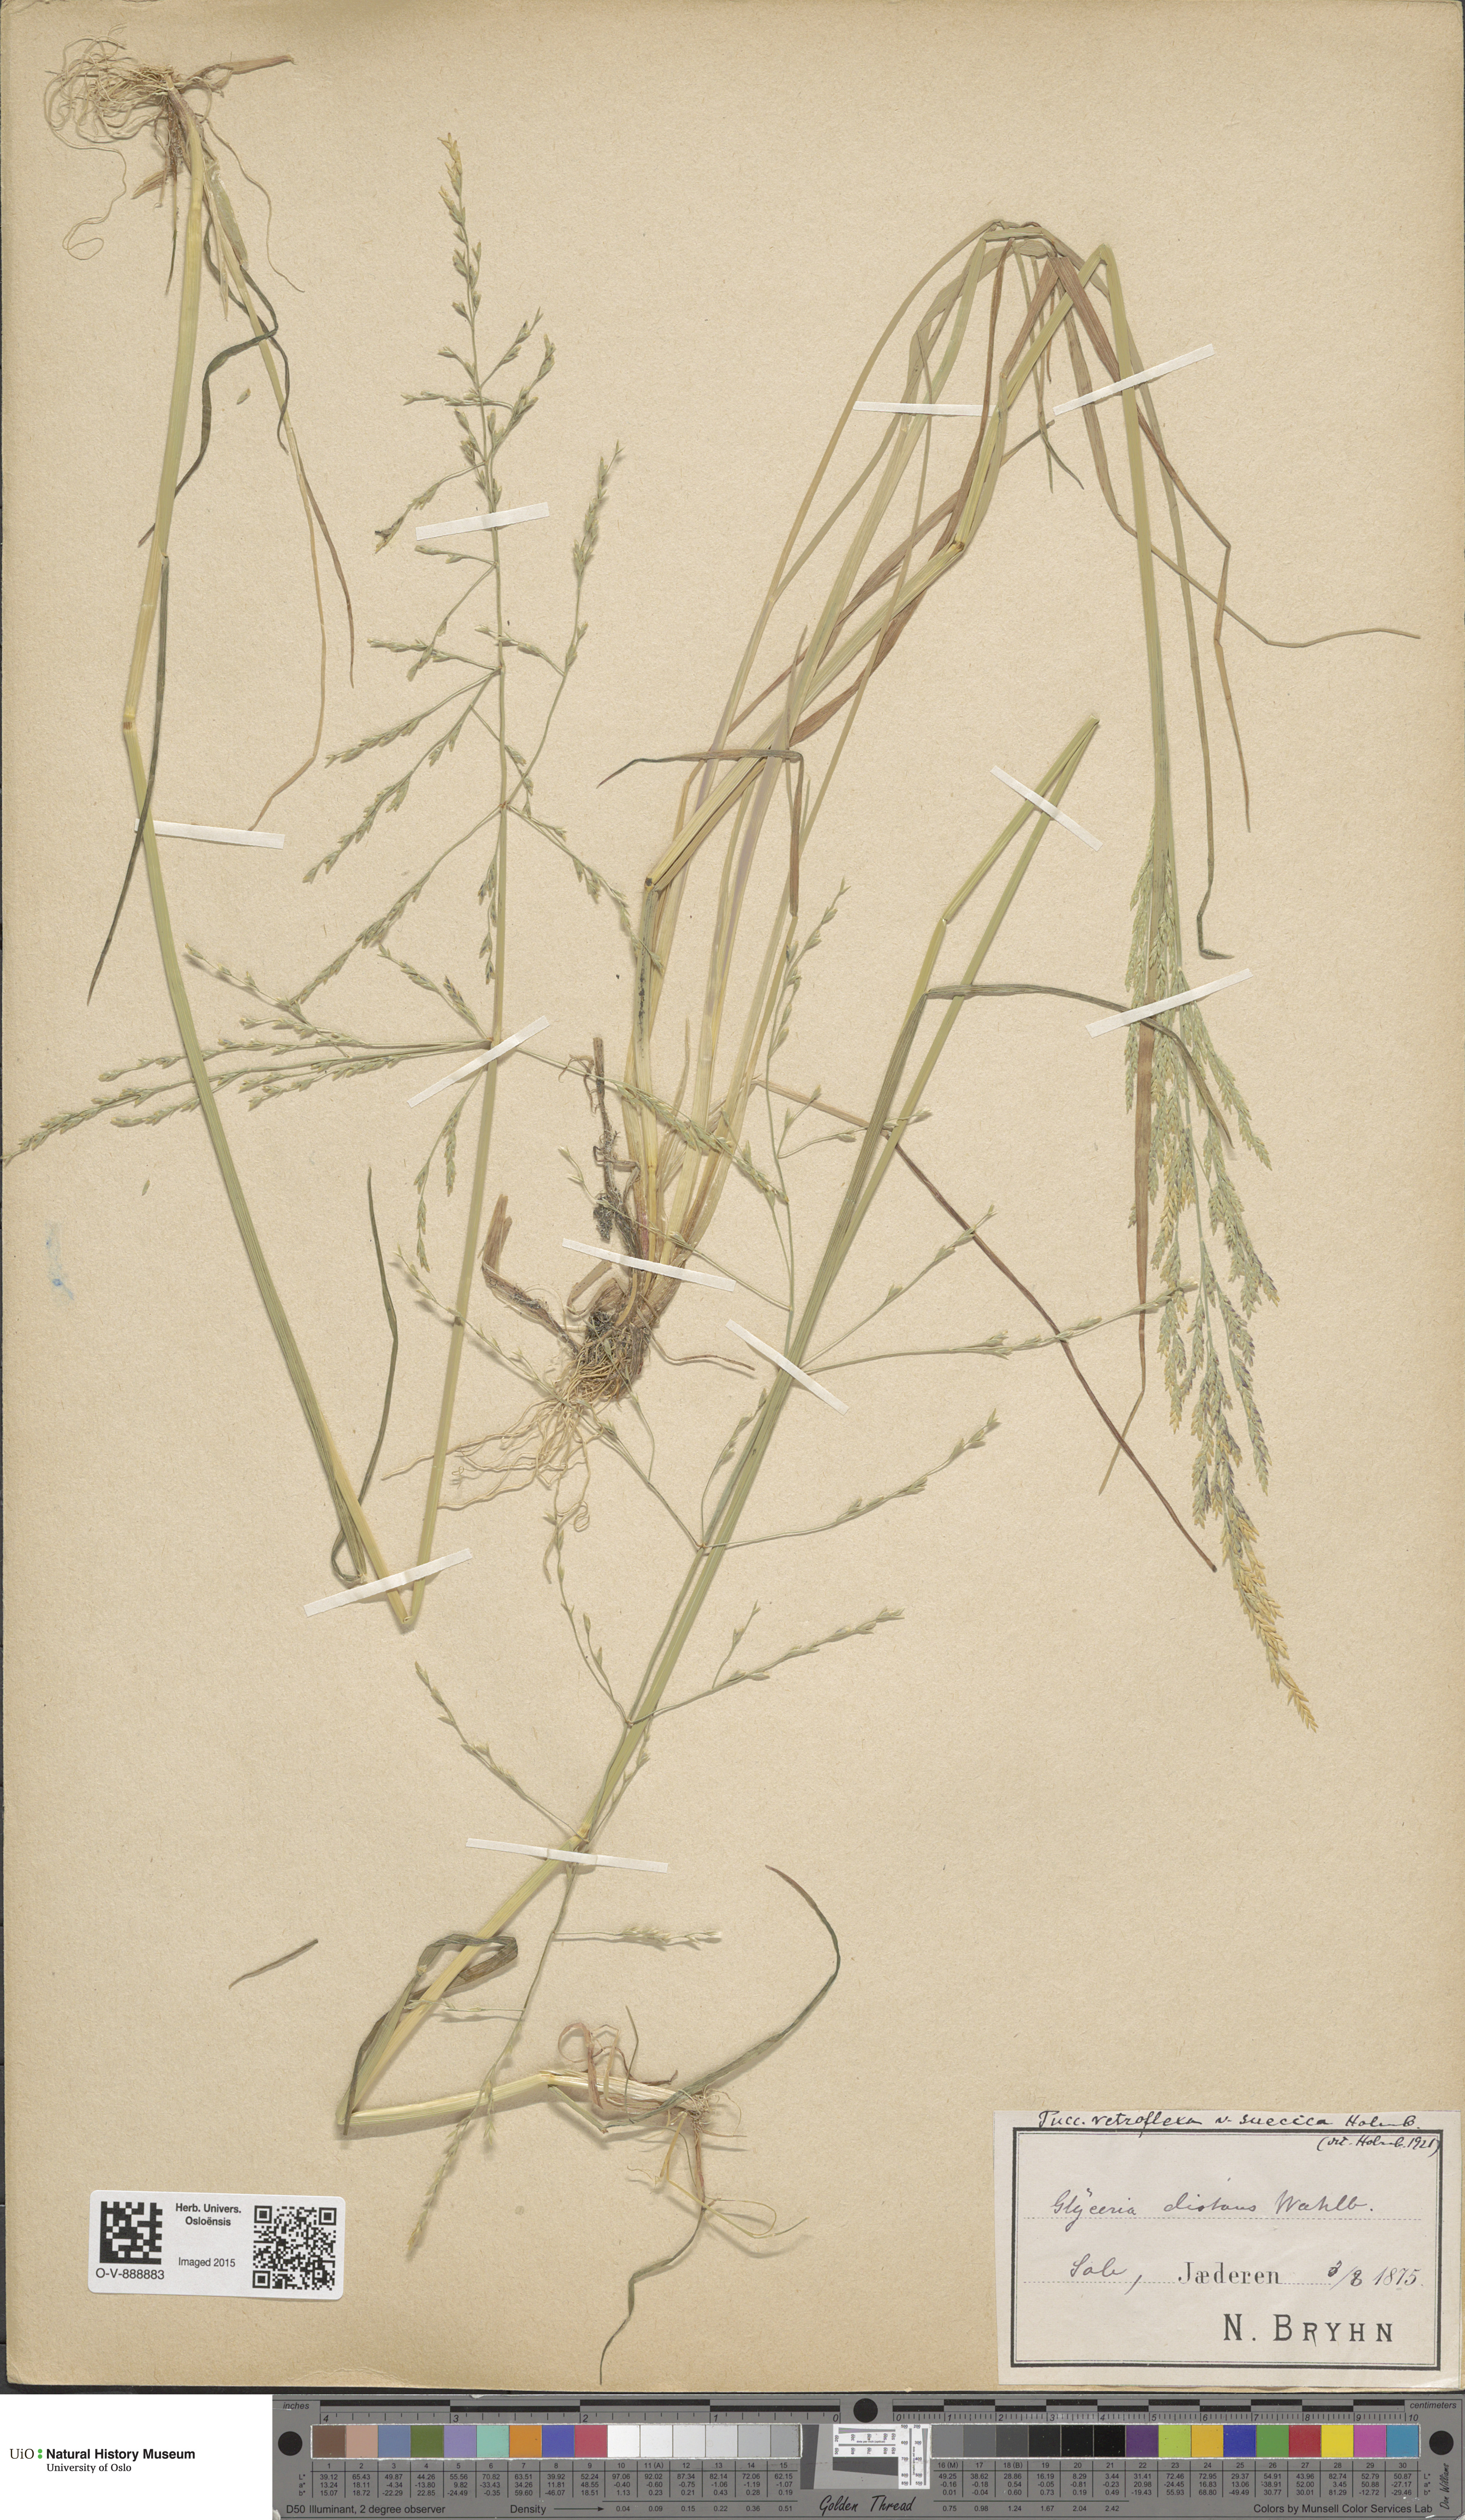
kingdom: Plantae
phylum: Tracheophyta
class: Liliopsida
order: Poales
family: Poaceae
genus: Puccinellia
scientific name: Puccinellia distans
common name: Weeping alkaligrass
